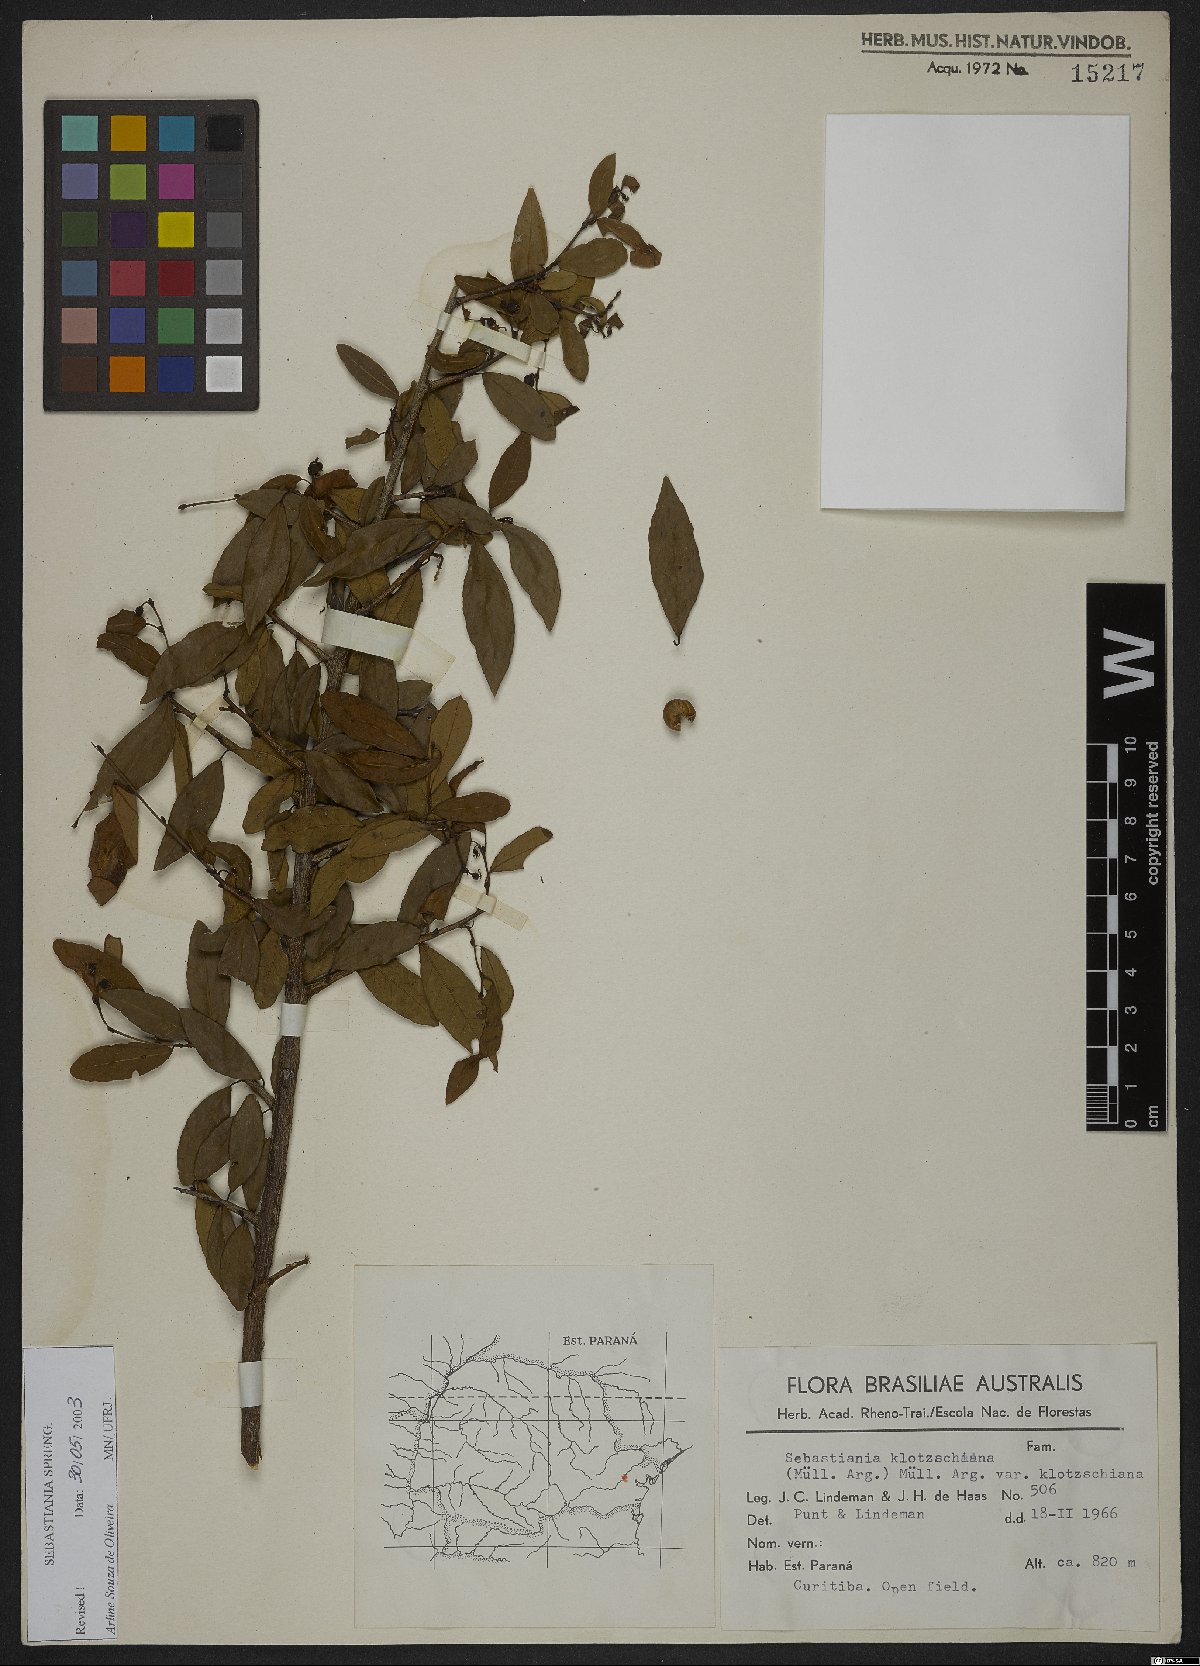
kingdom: Plantae
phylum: Tracheophyta
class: Magnoliopsida
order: Malpighiales
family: Euphorbiaceae
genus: Sebastiania
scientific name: Sebastiania schottiana
